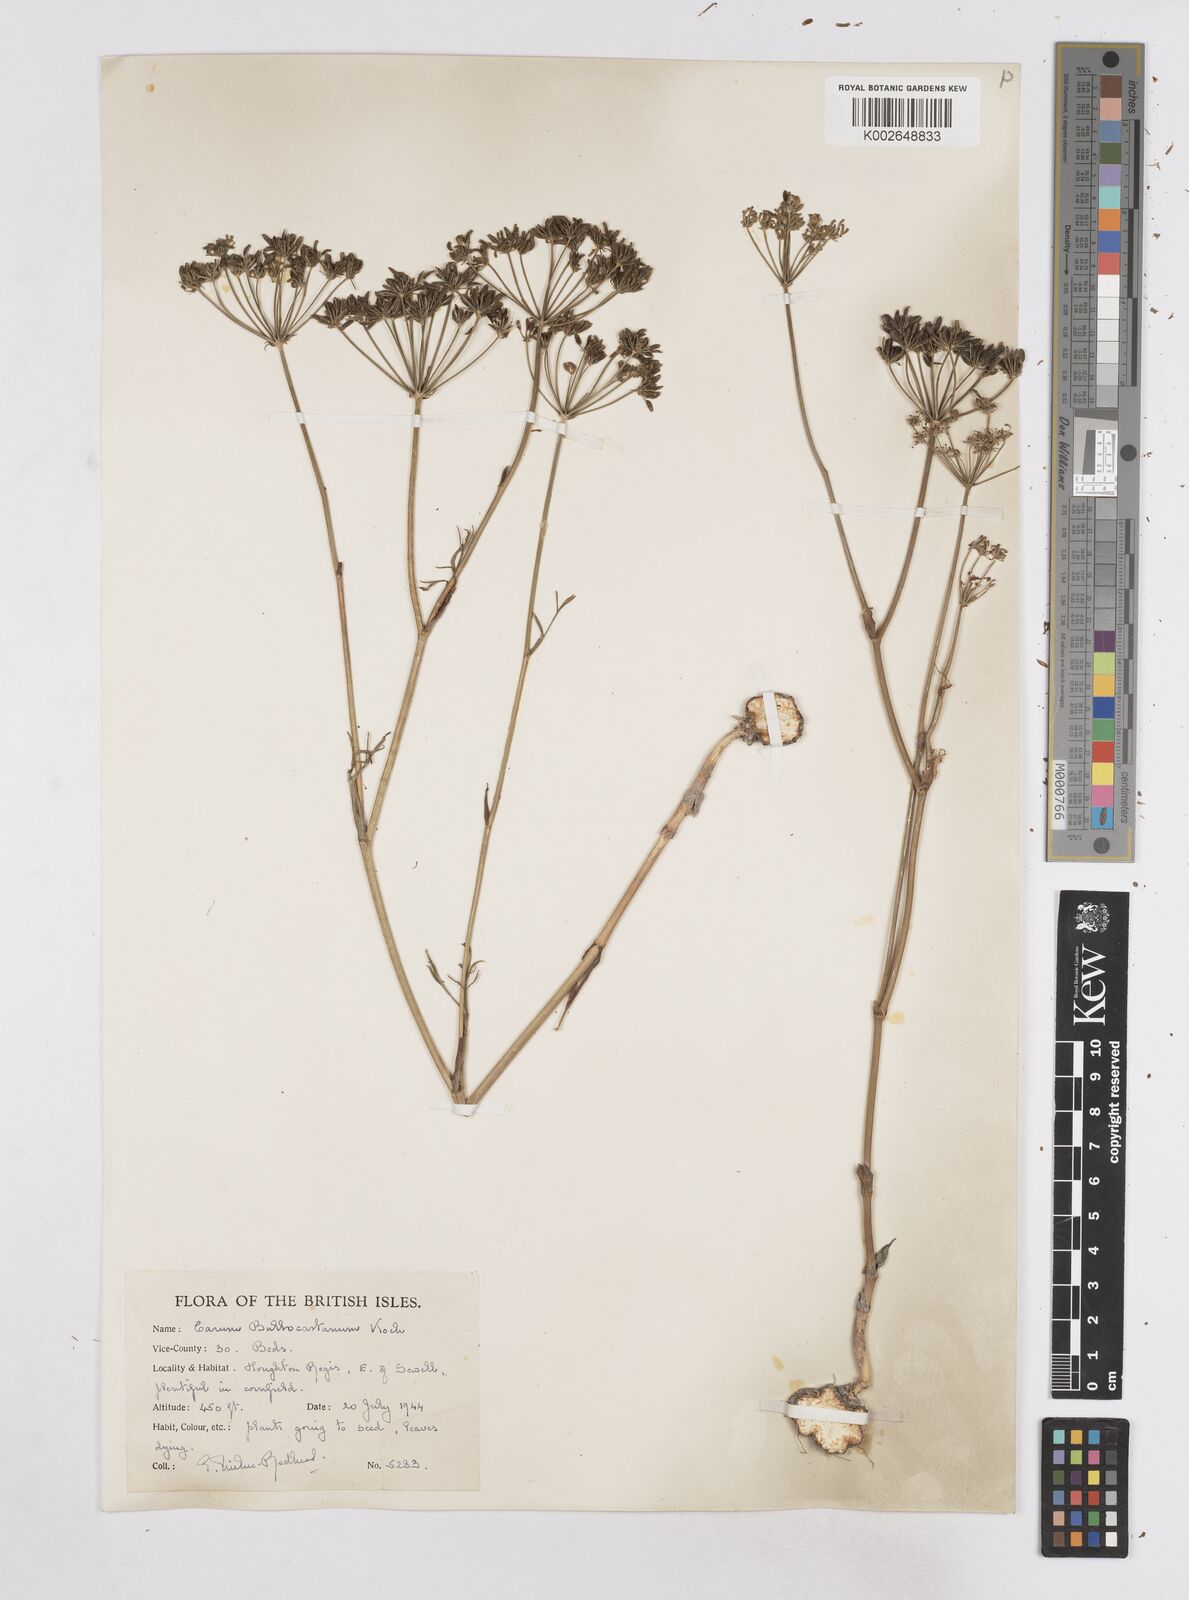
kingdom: Plantae
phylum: Tracheophyta
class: Magnoliopsida
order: Apiales
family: Apiaceae
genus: Bunium
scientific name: Bunium bulbocastanum
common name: Great pignut
